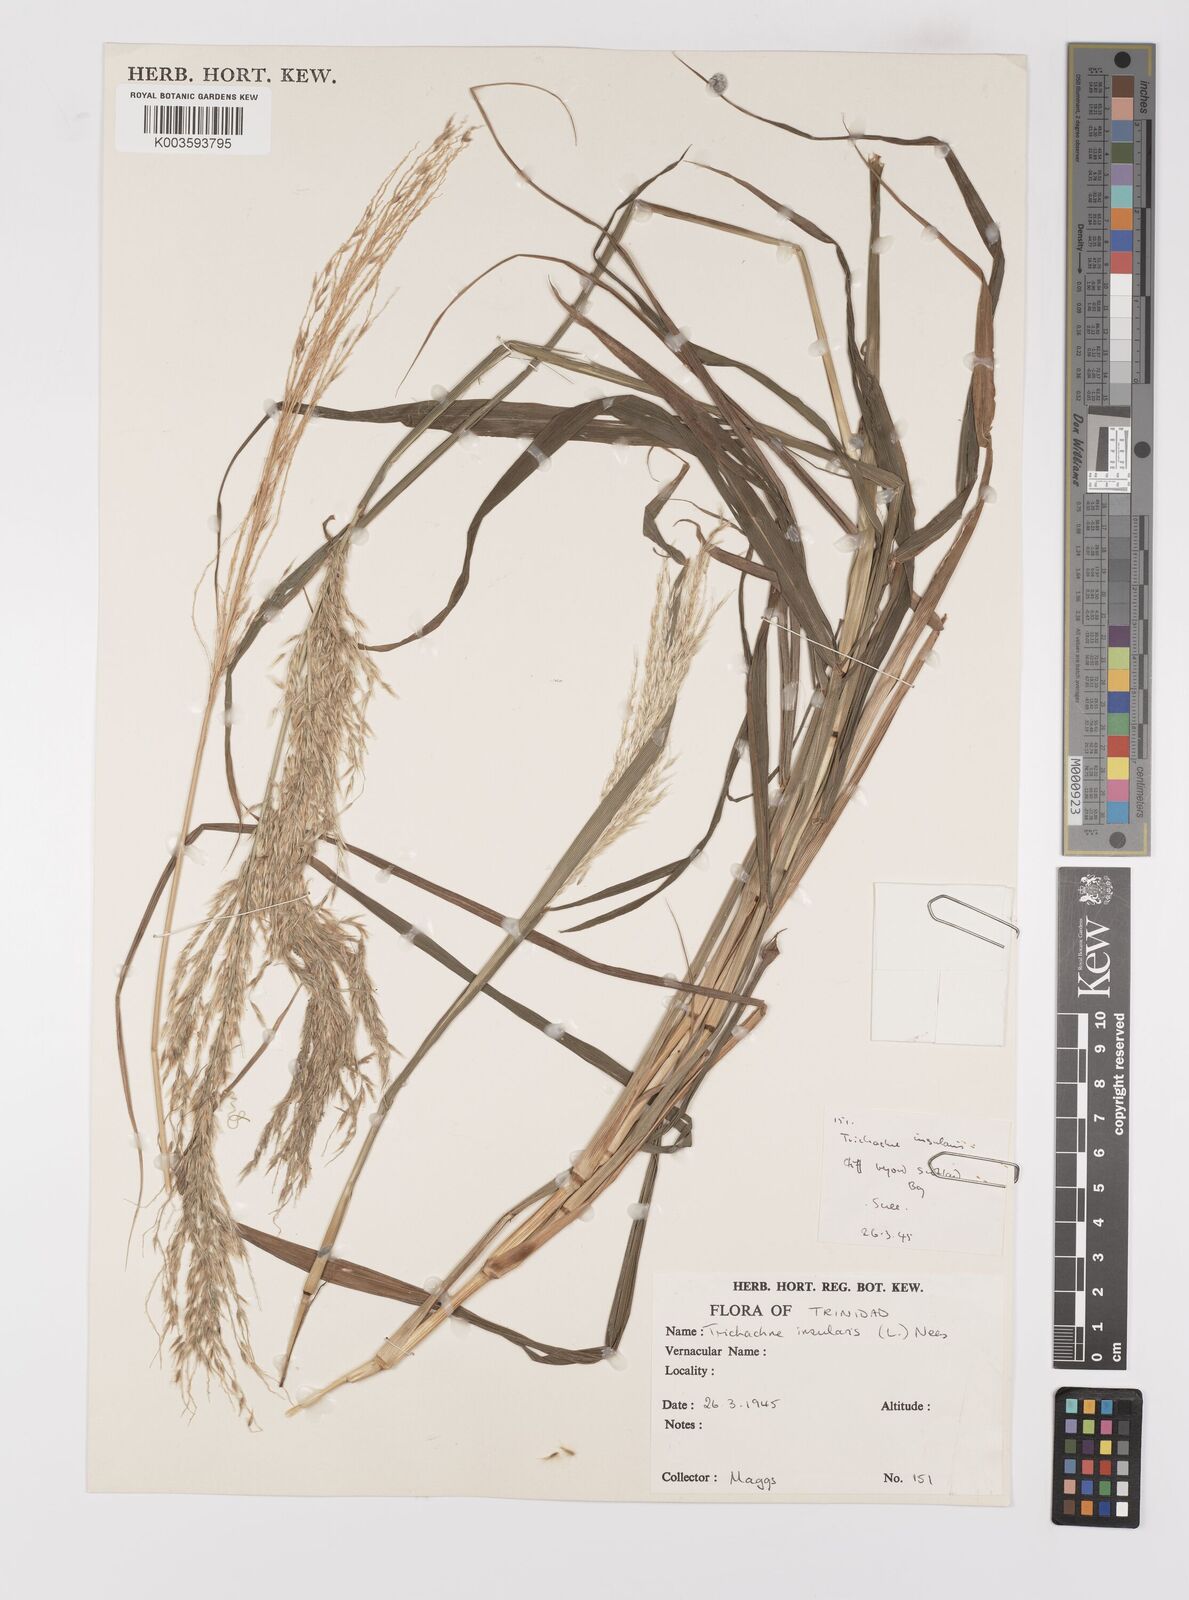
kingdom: Plantae
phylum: Tracheophyta
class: Liliopsida
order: Poales
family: Poaceae
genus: Digitaria
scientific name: Digitaria insularis
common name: Sourgrass
